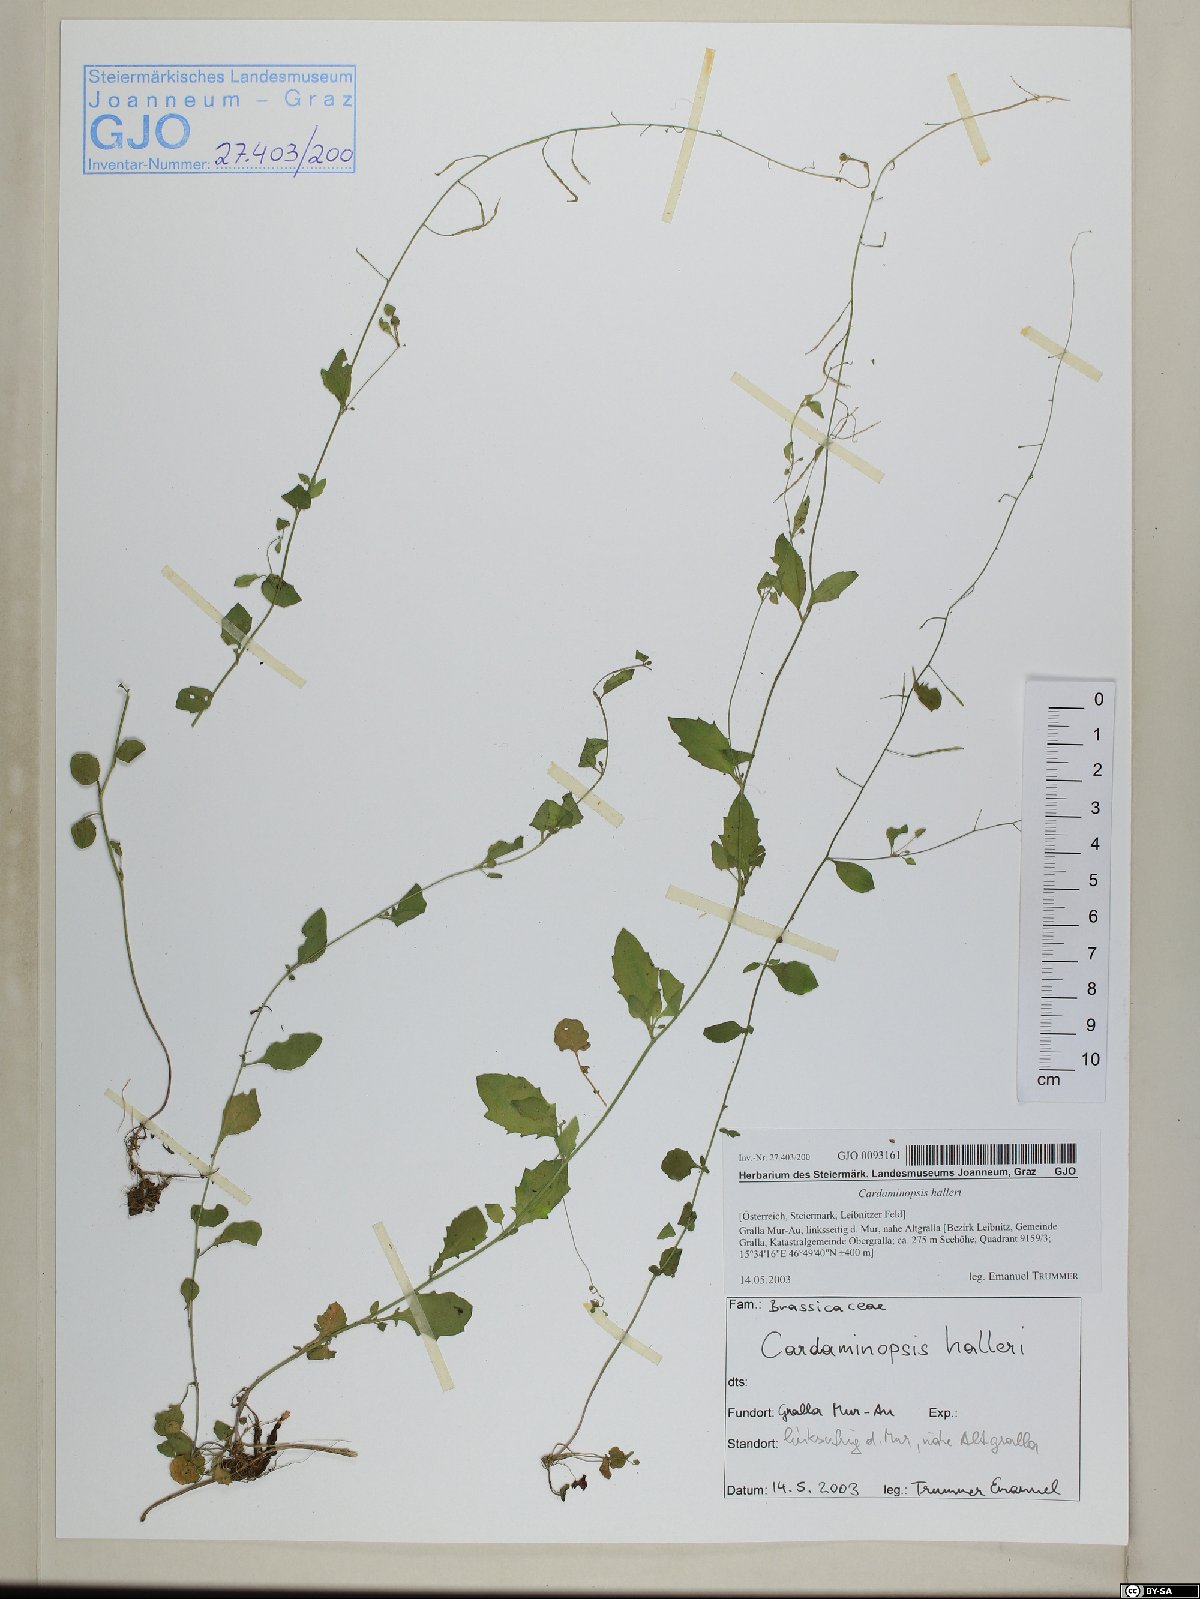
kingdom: Plantae
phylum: Tracheophyta
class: Magnoliopsida
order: Brassicales
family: Brassicaceae
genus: Arabidopsis
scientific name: Arabidopsis halleri
